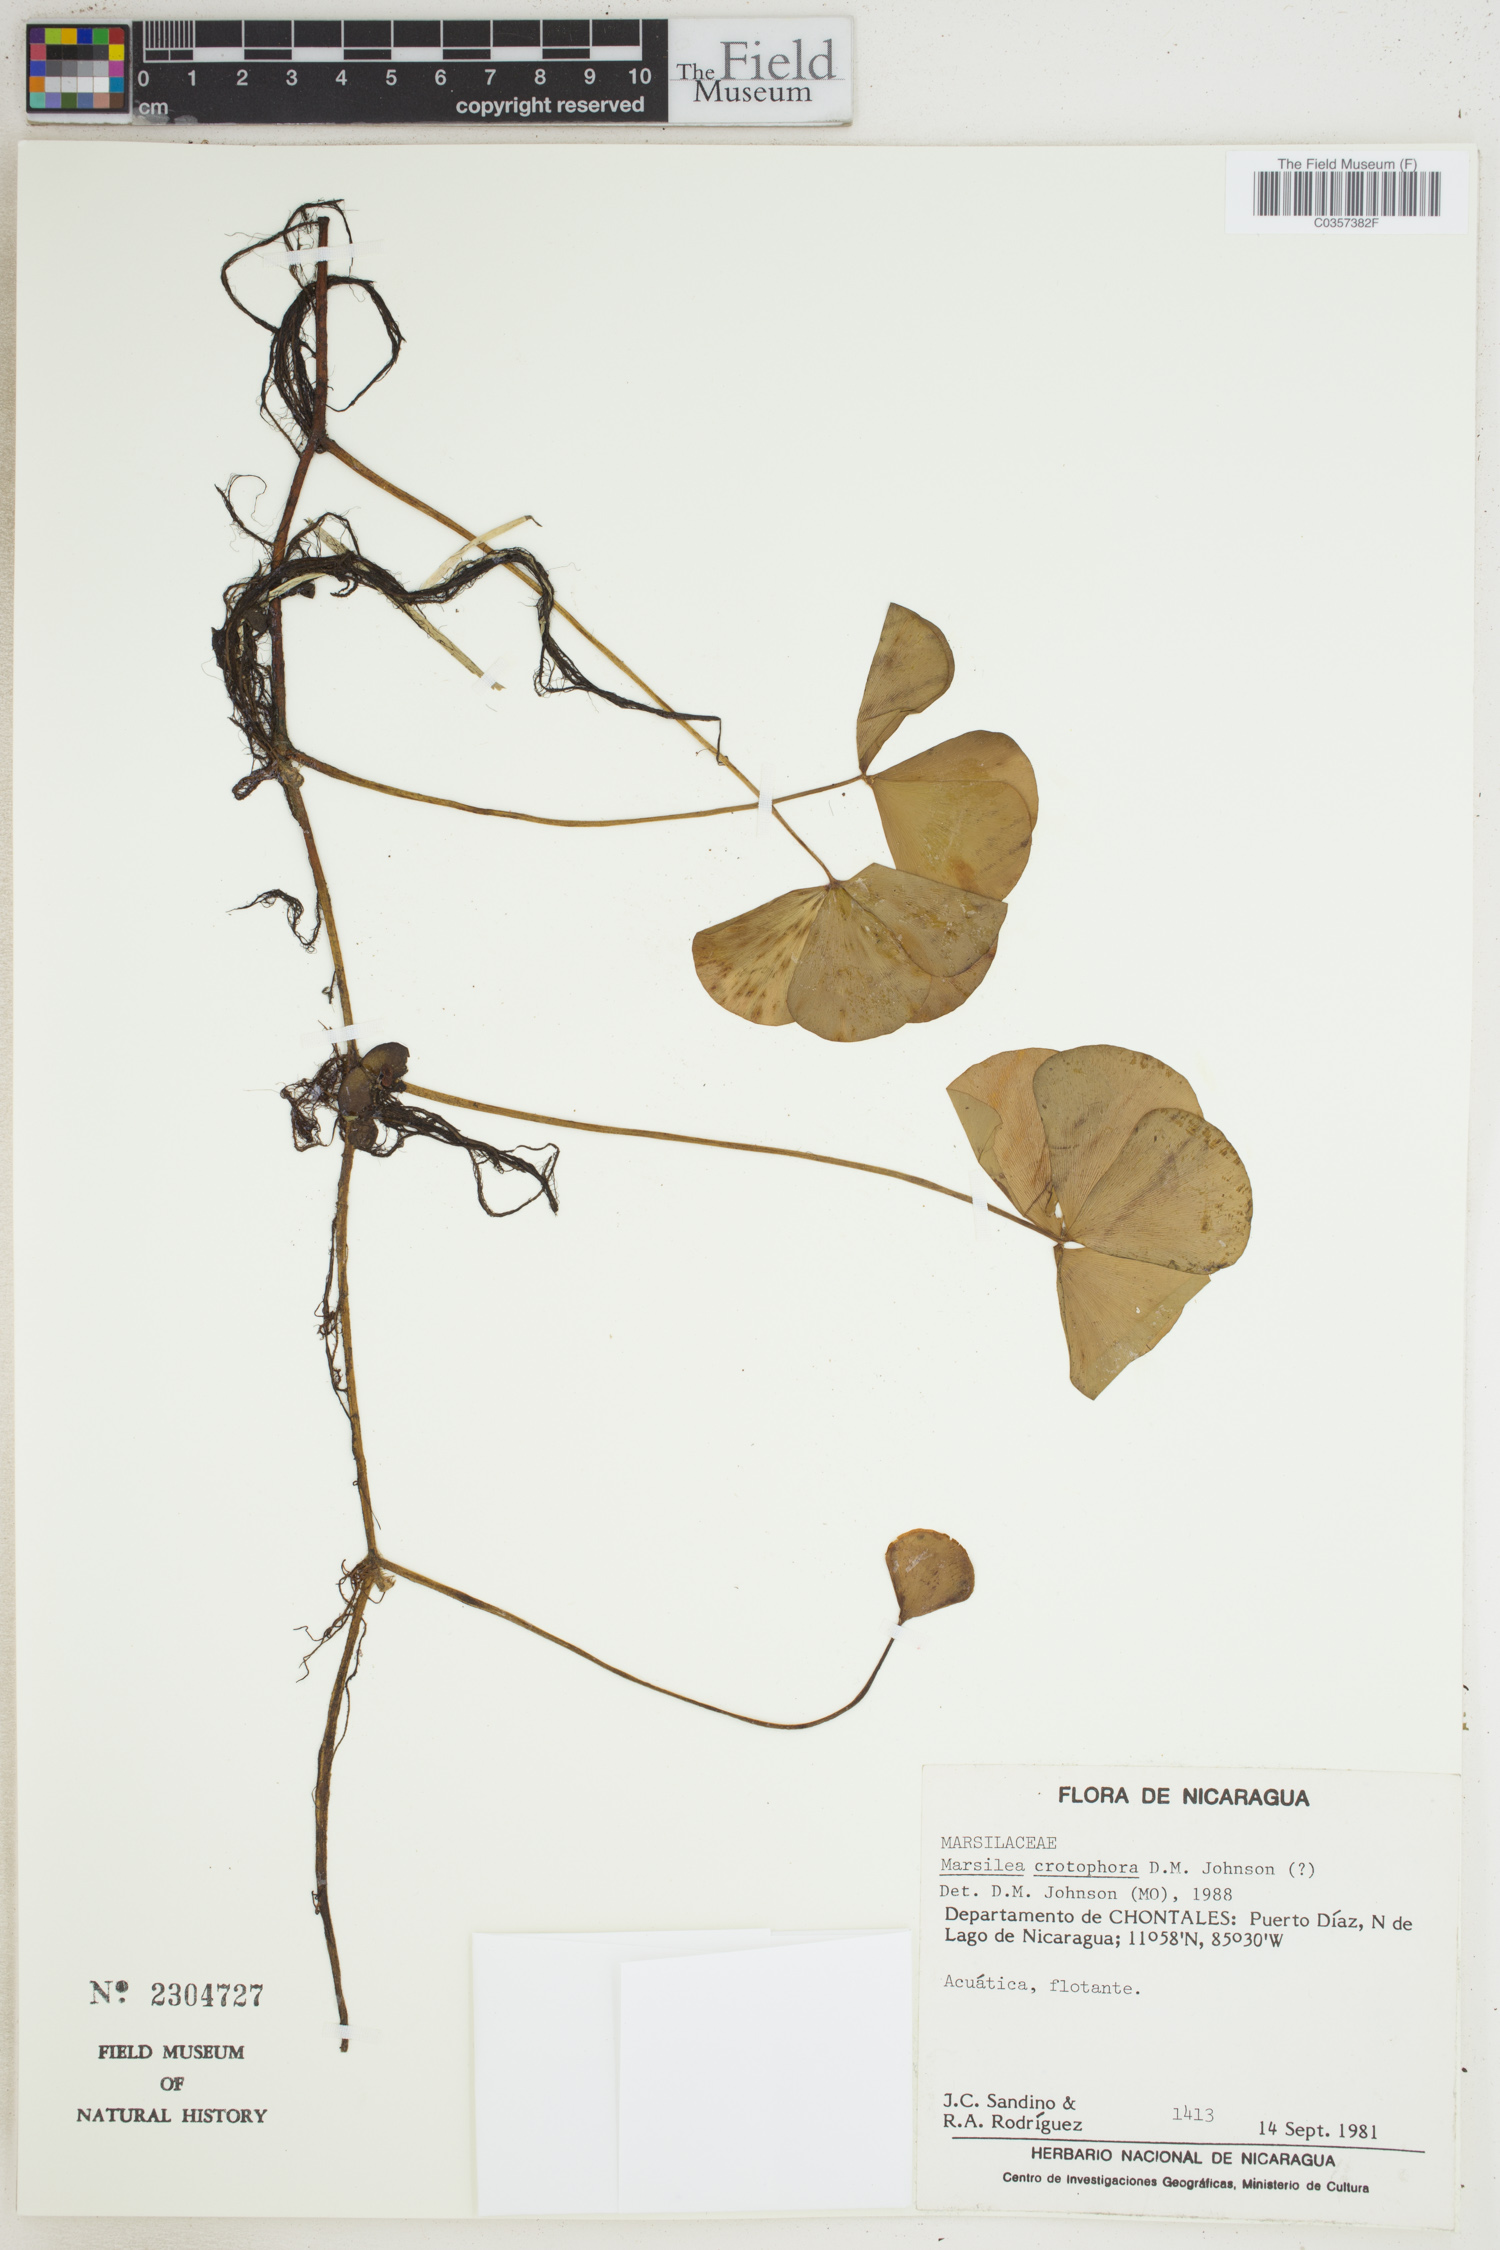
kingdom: Plantae
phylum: Tracheophyta
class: Polypodiopsida
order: Salviniales
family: Marsileaceae
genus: Marsilea
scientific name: Marsilea crotophora
